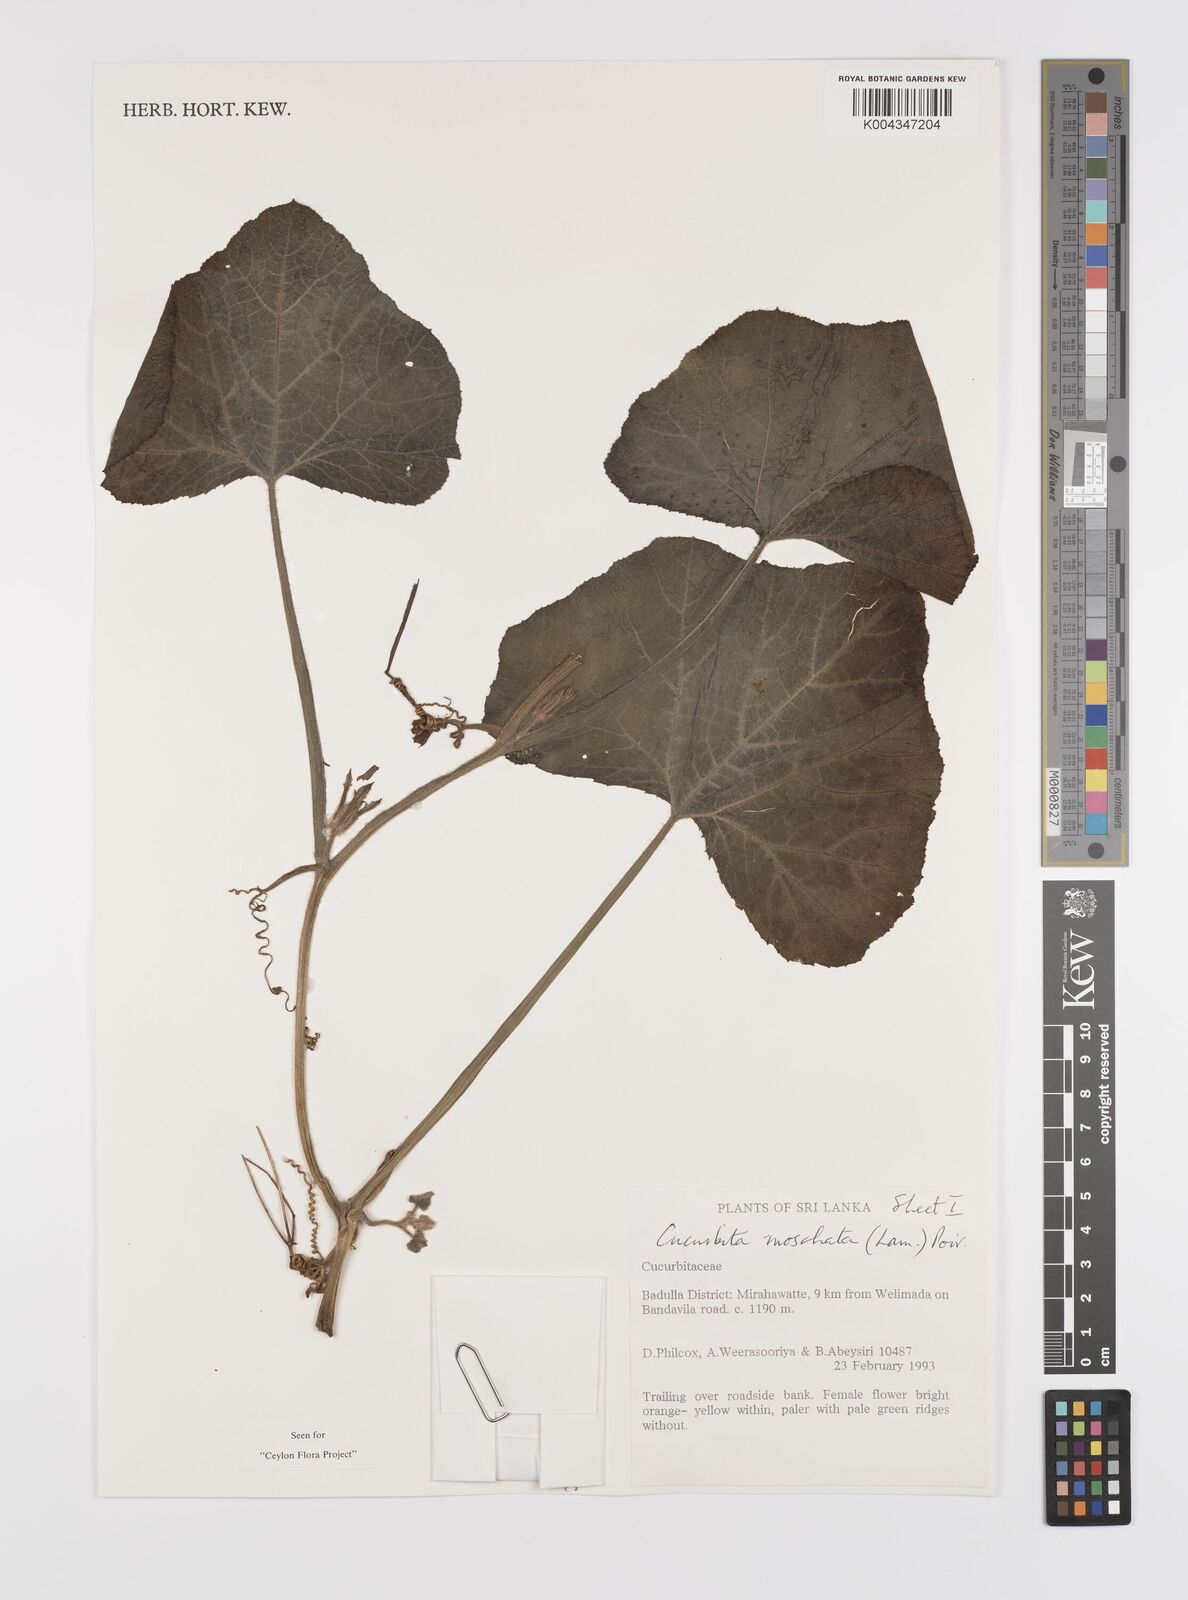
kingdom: Plantae
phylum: Tracheophyta
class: Magnoliopsida
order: Cucurbitales
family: Cucurbitaceae
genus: Cucurbita
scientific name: Cucurbita moschata
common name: Squash / pumpkin
